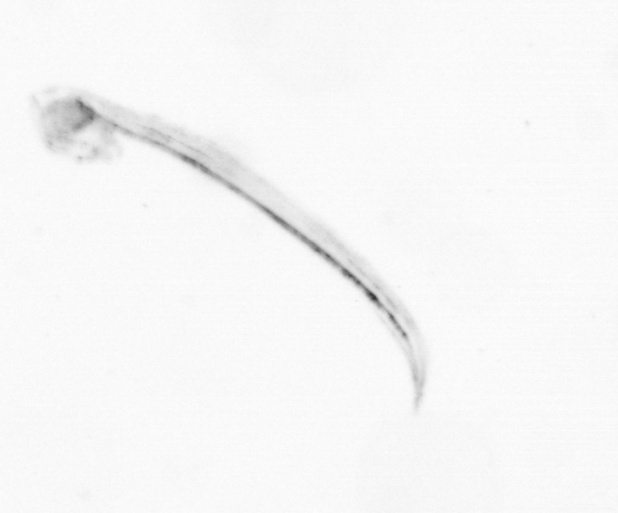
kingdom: Animalia
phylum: Chordata
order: Copelata
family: Fritillariidae
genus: Appendicularia
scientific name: Appendicularia
